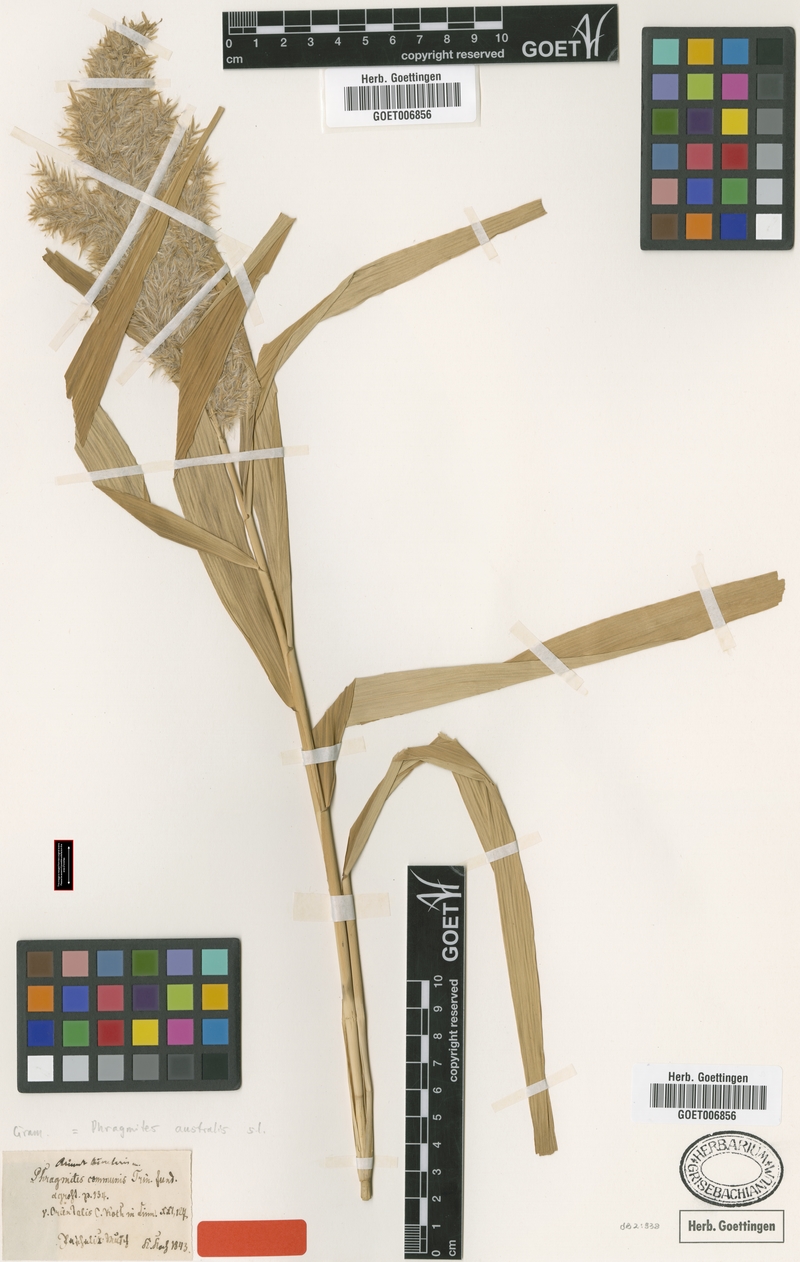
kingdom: Plantae
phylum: Tracheophyta
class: Liliopsida
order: Poales
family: Poaceae
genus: Phragmites
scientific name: Phragmites australis
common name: Common reed
